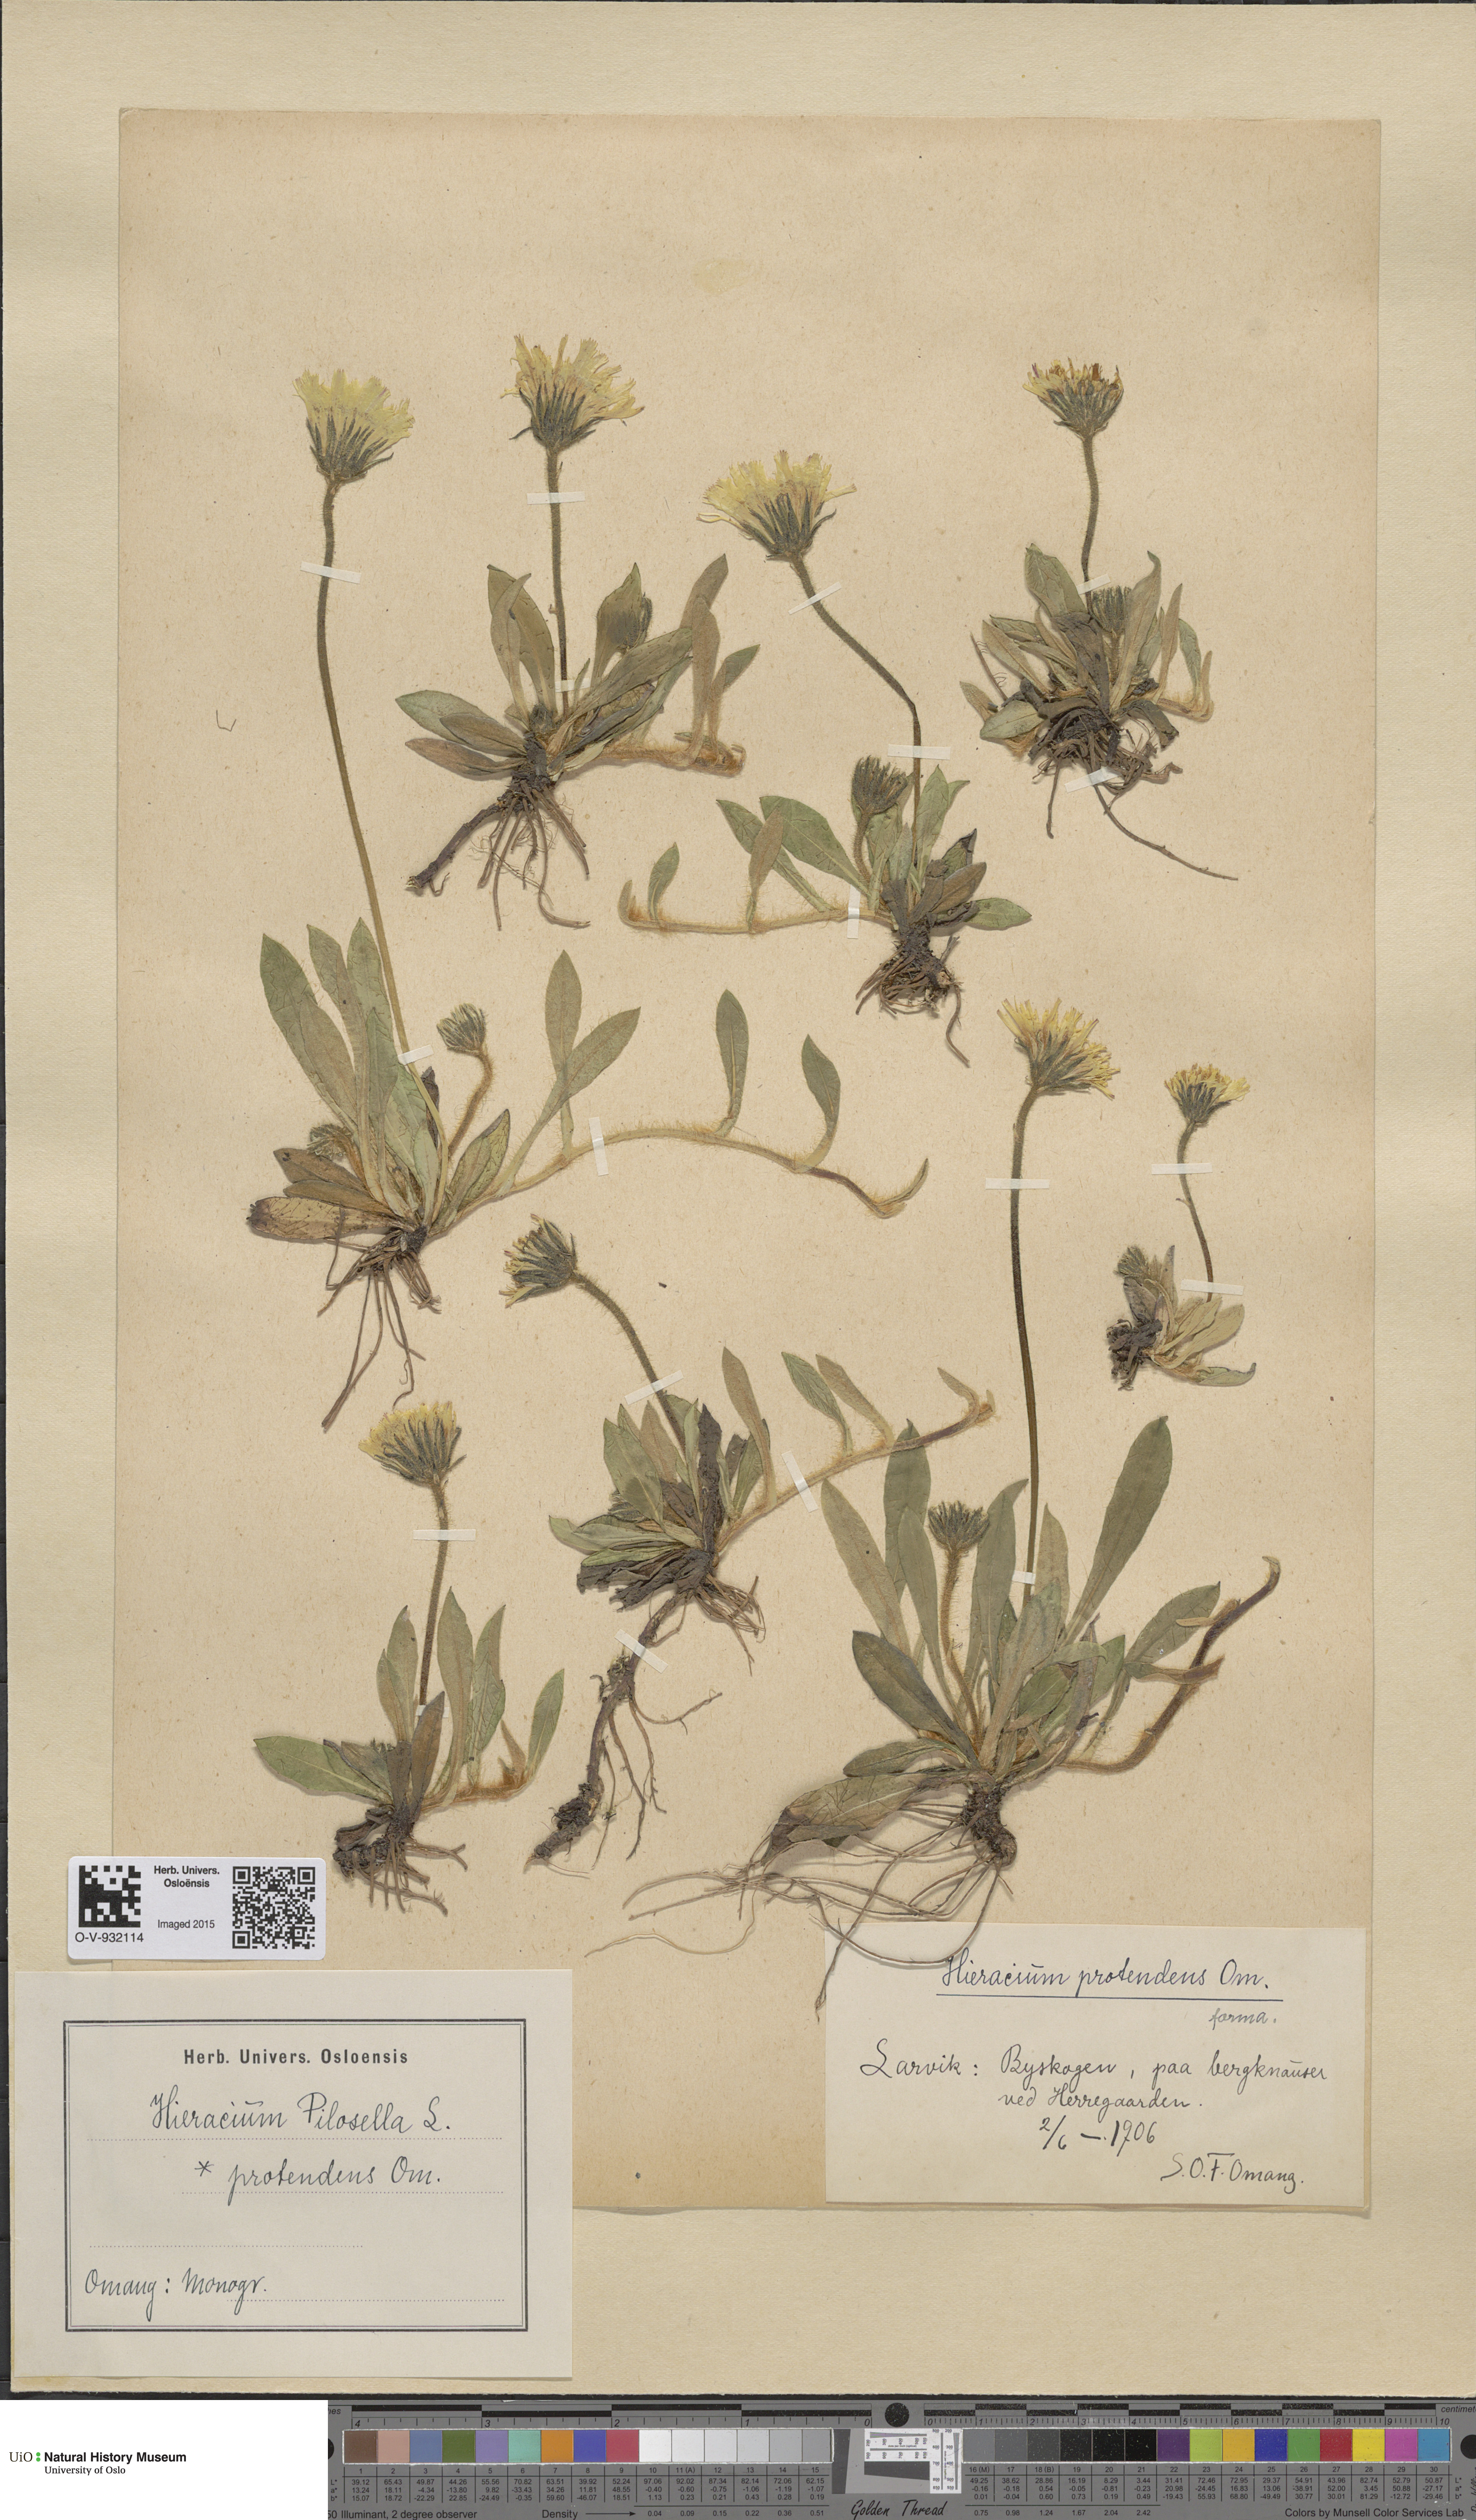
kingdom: Plantae
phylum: Tracheophyta
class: Magnoliopsida
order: Asterales
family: Asteraceae
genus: Pilosella
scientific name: Pilosella officinarum
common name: Mouse-ear hawkweed
